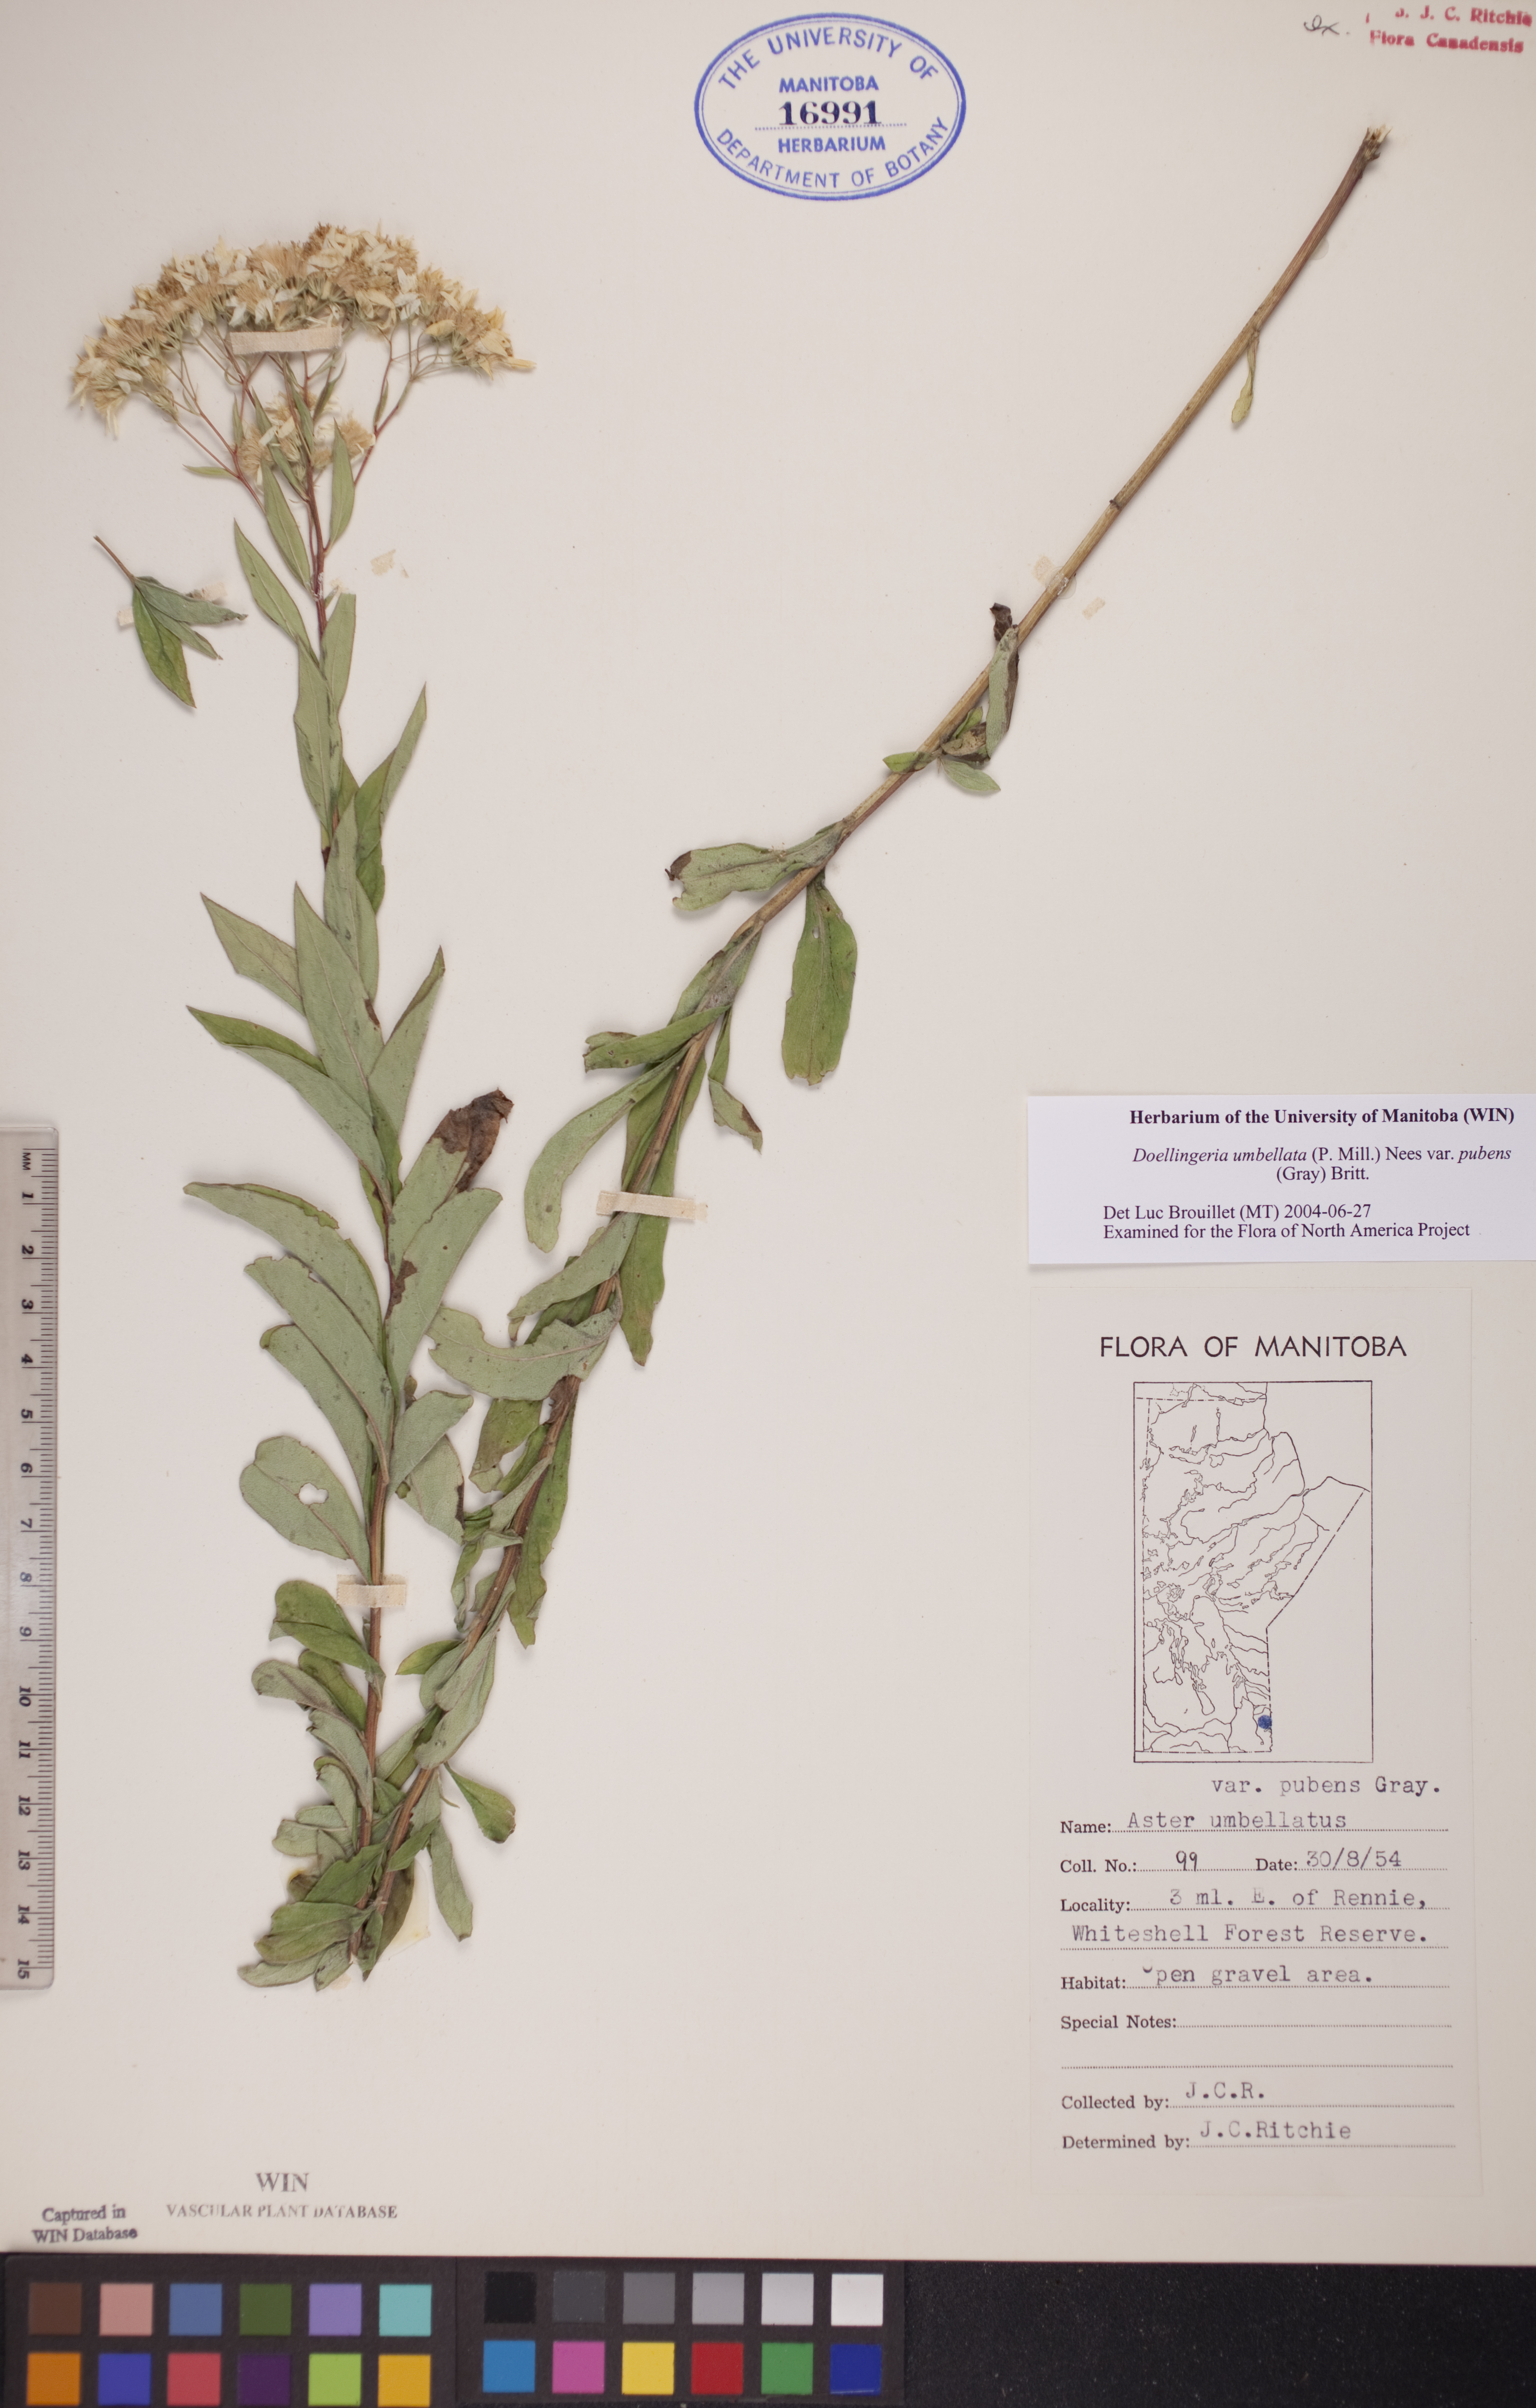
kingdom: Plantae
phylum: Tracheophyta
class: Magnoliopsida
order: Asterales
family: Asteraceae
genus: Doellingeria
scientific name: Doellingeria umbellata
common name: Flat-top white aster
